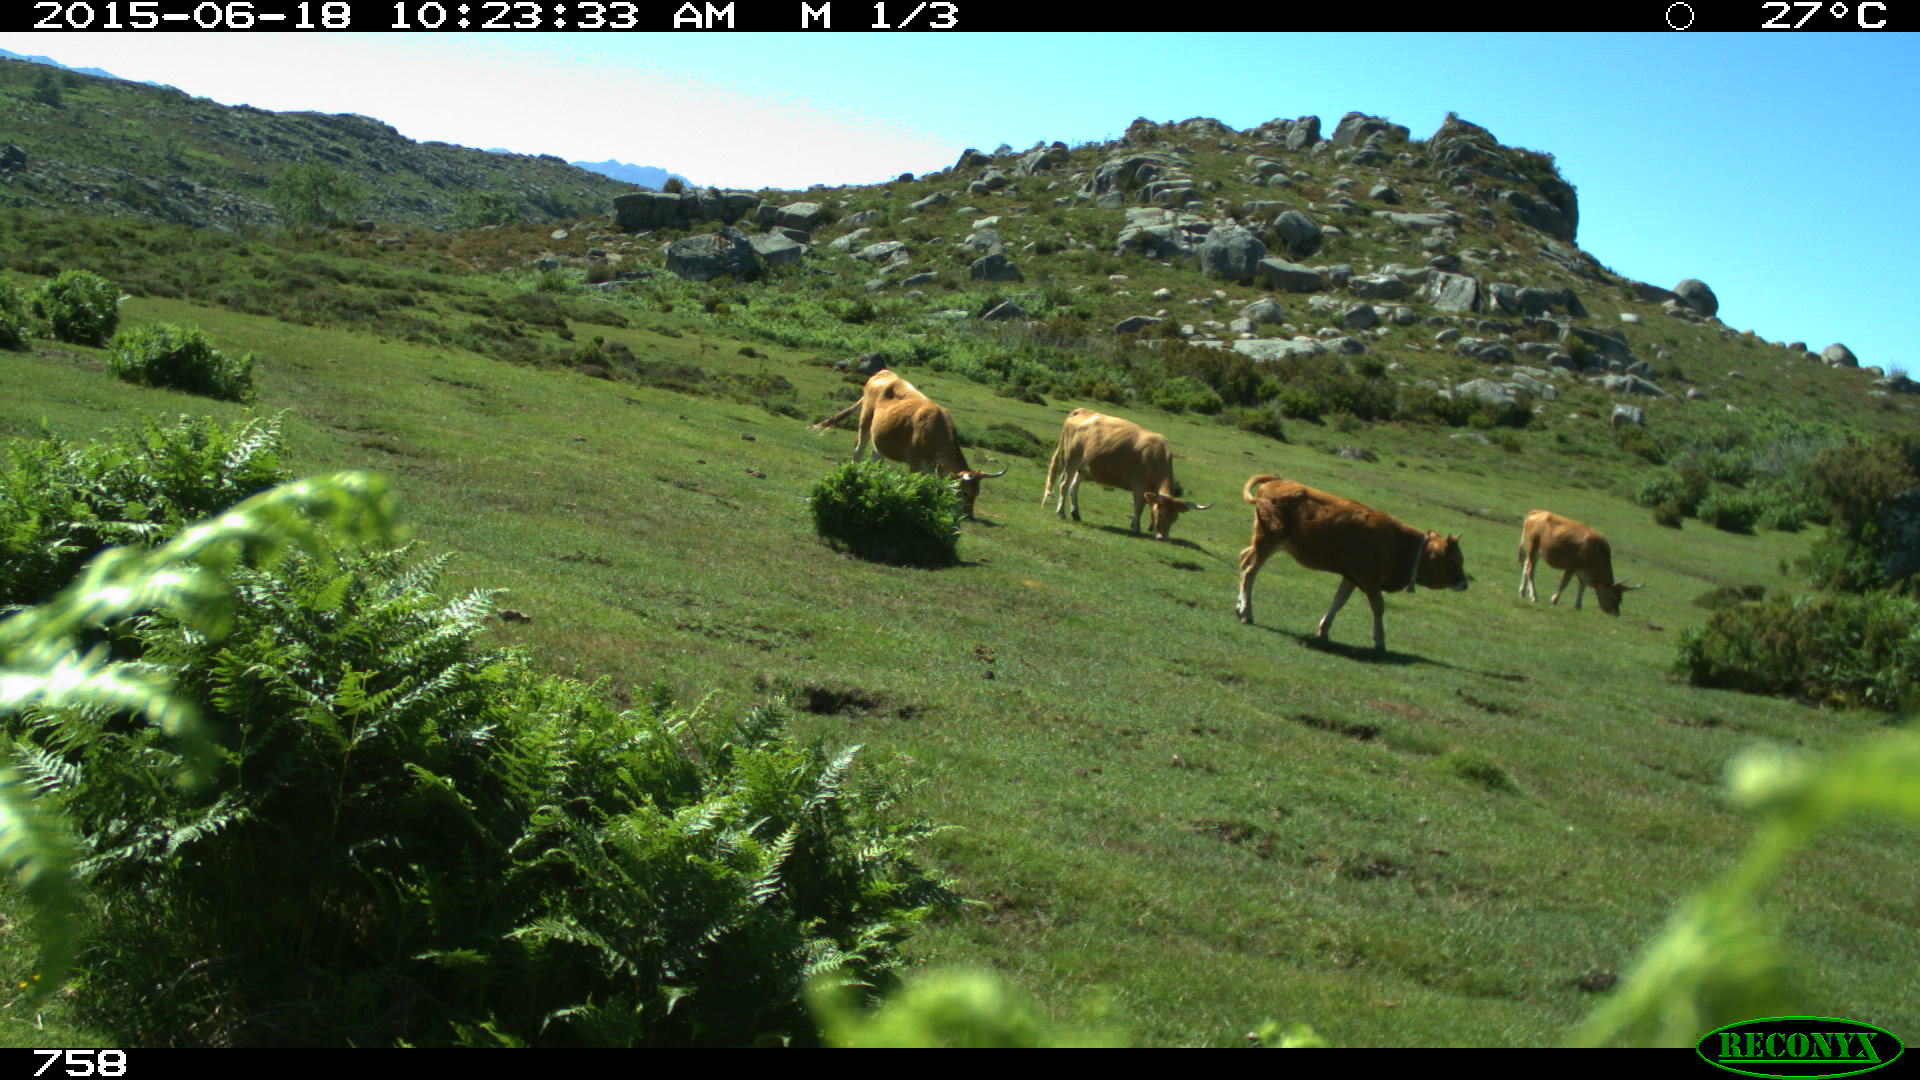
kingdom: Animalia
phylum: Chordata
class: Mammalia
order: Artiodactyla
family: Bovidae
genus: Bos
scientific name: Bos taurus
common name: Domesticated cattle
